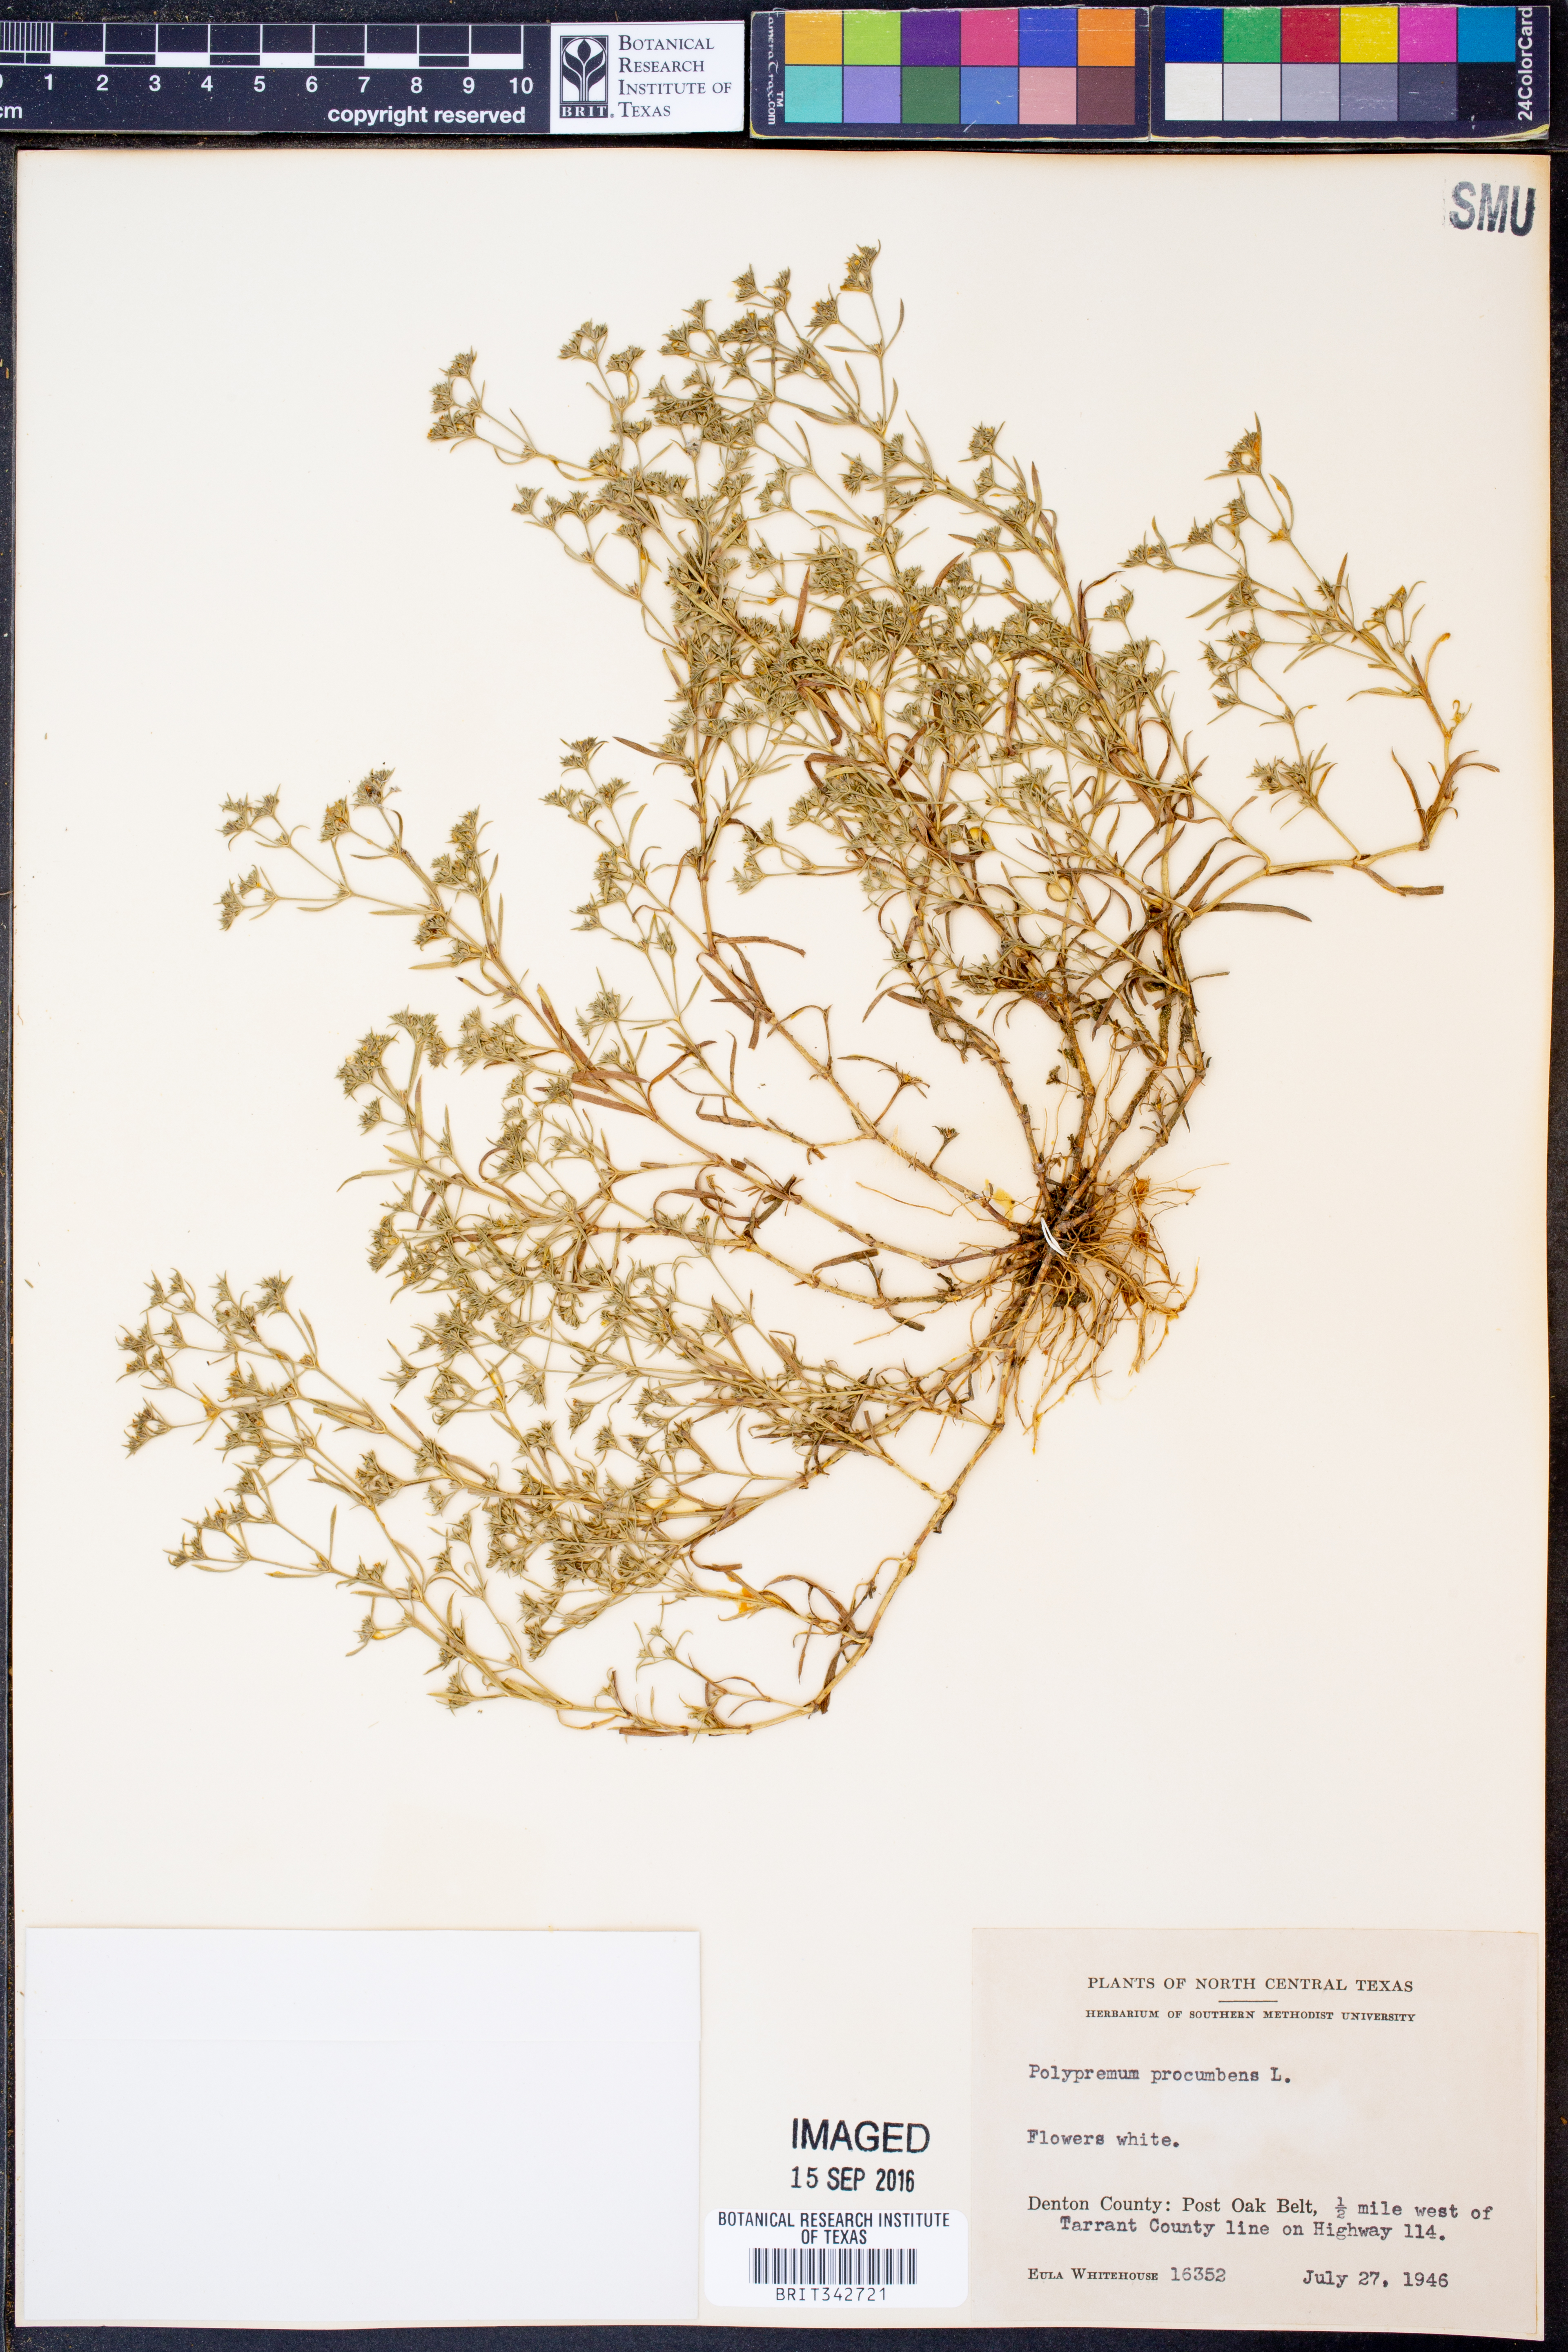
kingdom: Plantae
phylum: Tracheophyta
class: Magnoliopsida
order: Lamiales
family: Tetrachondraceae
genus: Polypremum
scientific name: Polypremum procumbens
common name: Juniper-leaf
